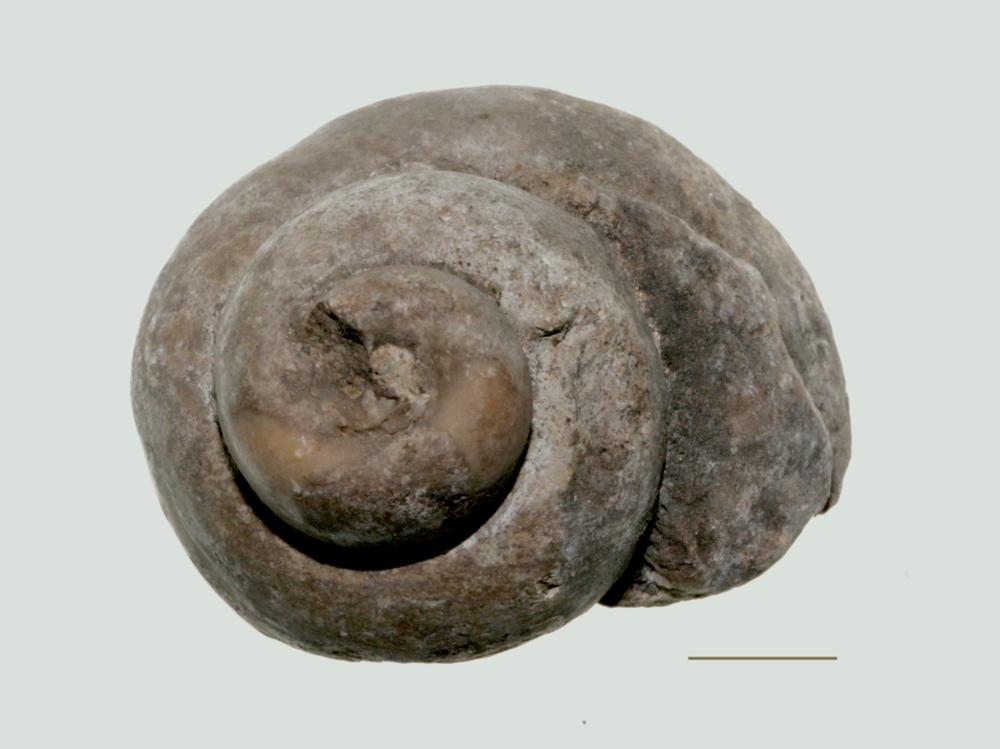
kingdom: Animalia
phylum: Mollusca
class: Gastropoda
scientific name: Gastropoda
